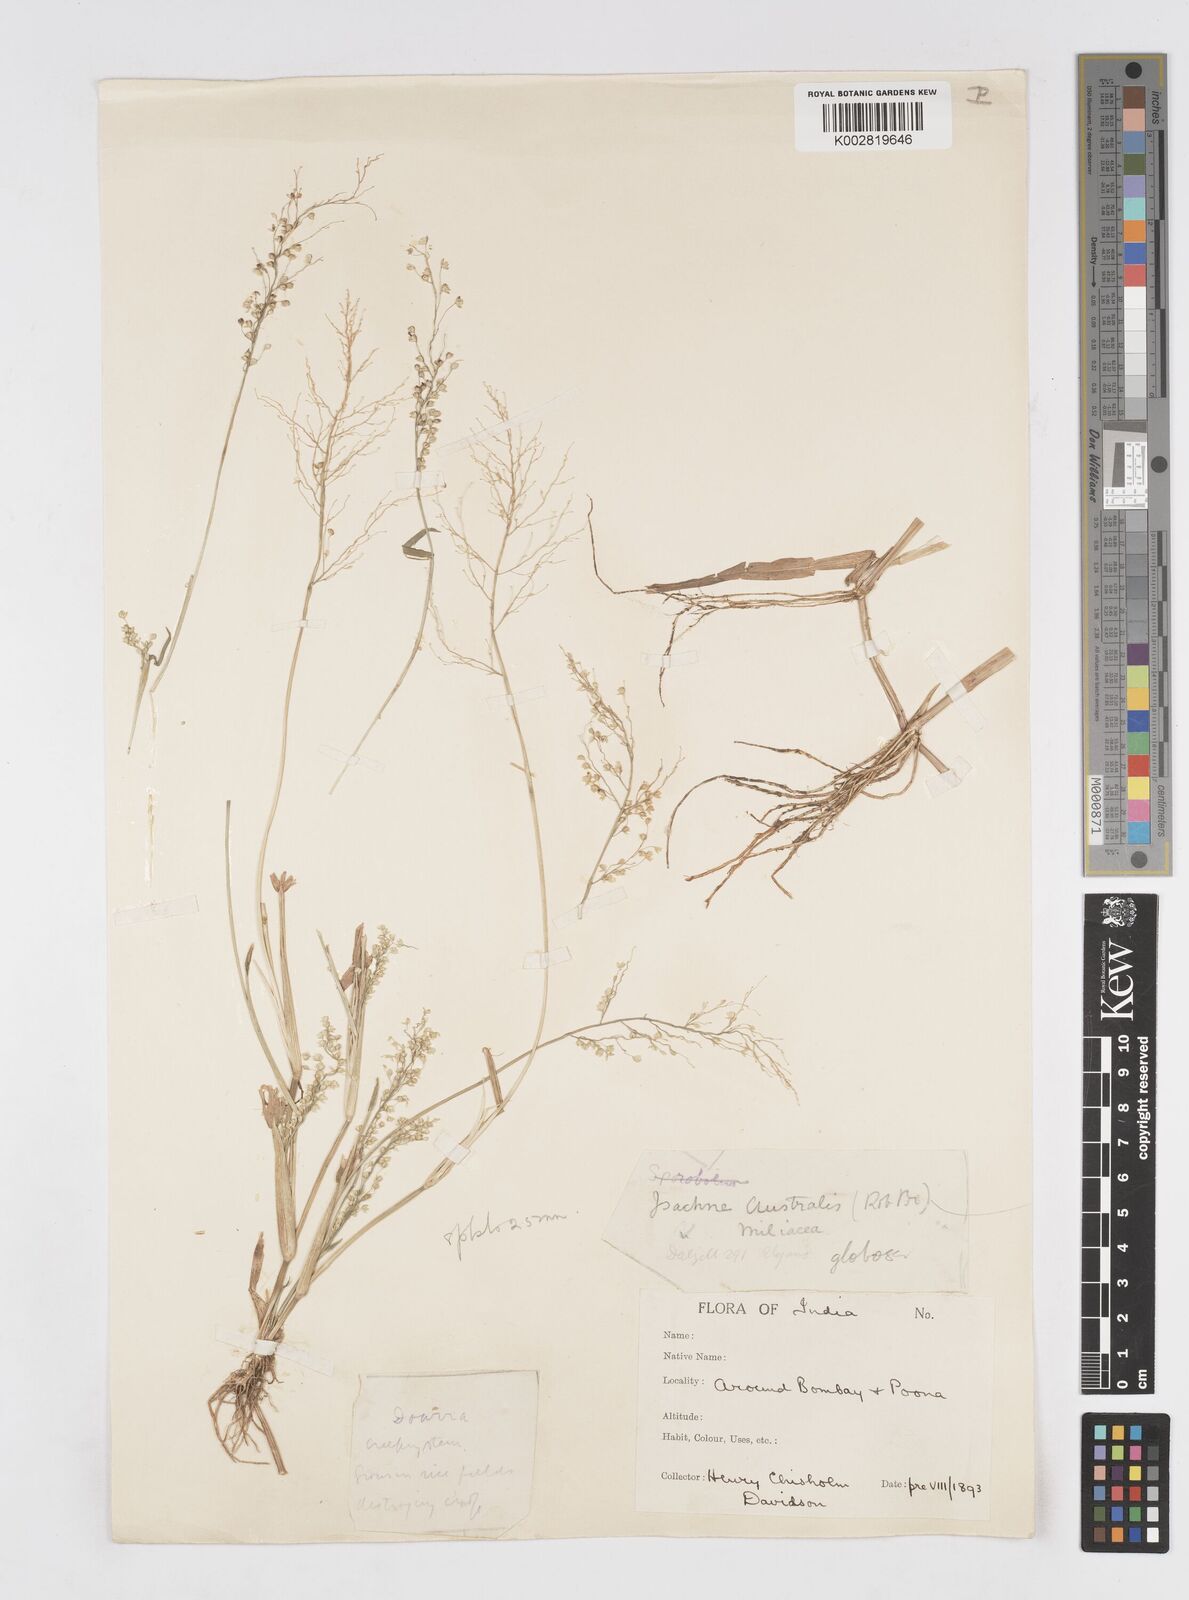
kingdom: Plantae
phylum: Tracheophyta
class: Liliopsida
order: Poales
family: Poaceae
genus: Isachne
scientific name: Isachne globosa
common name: Swamp millet
